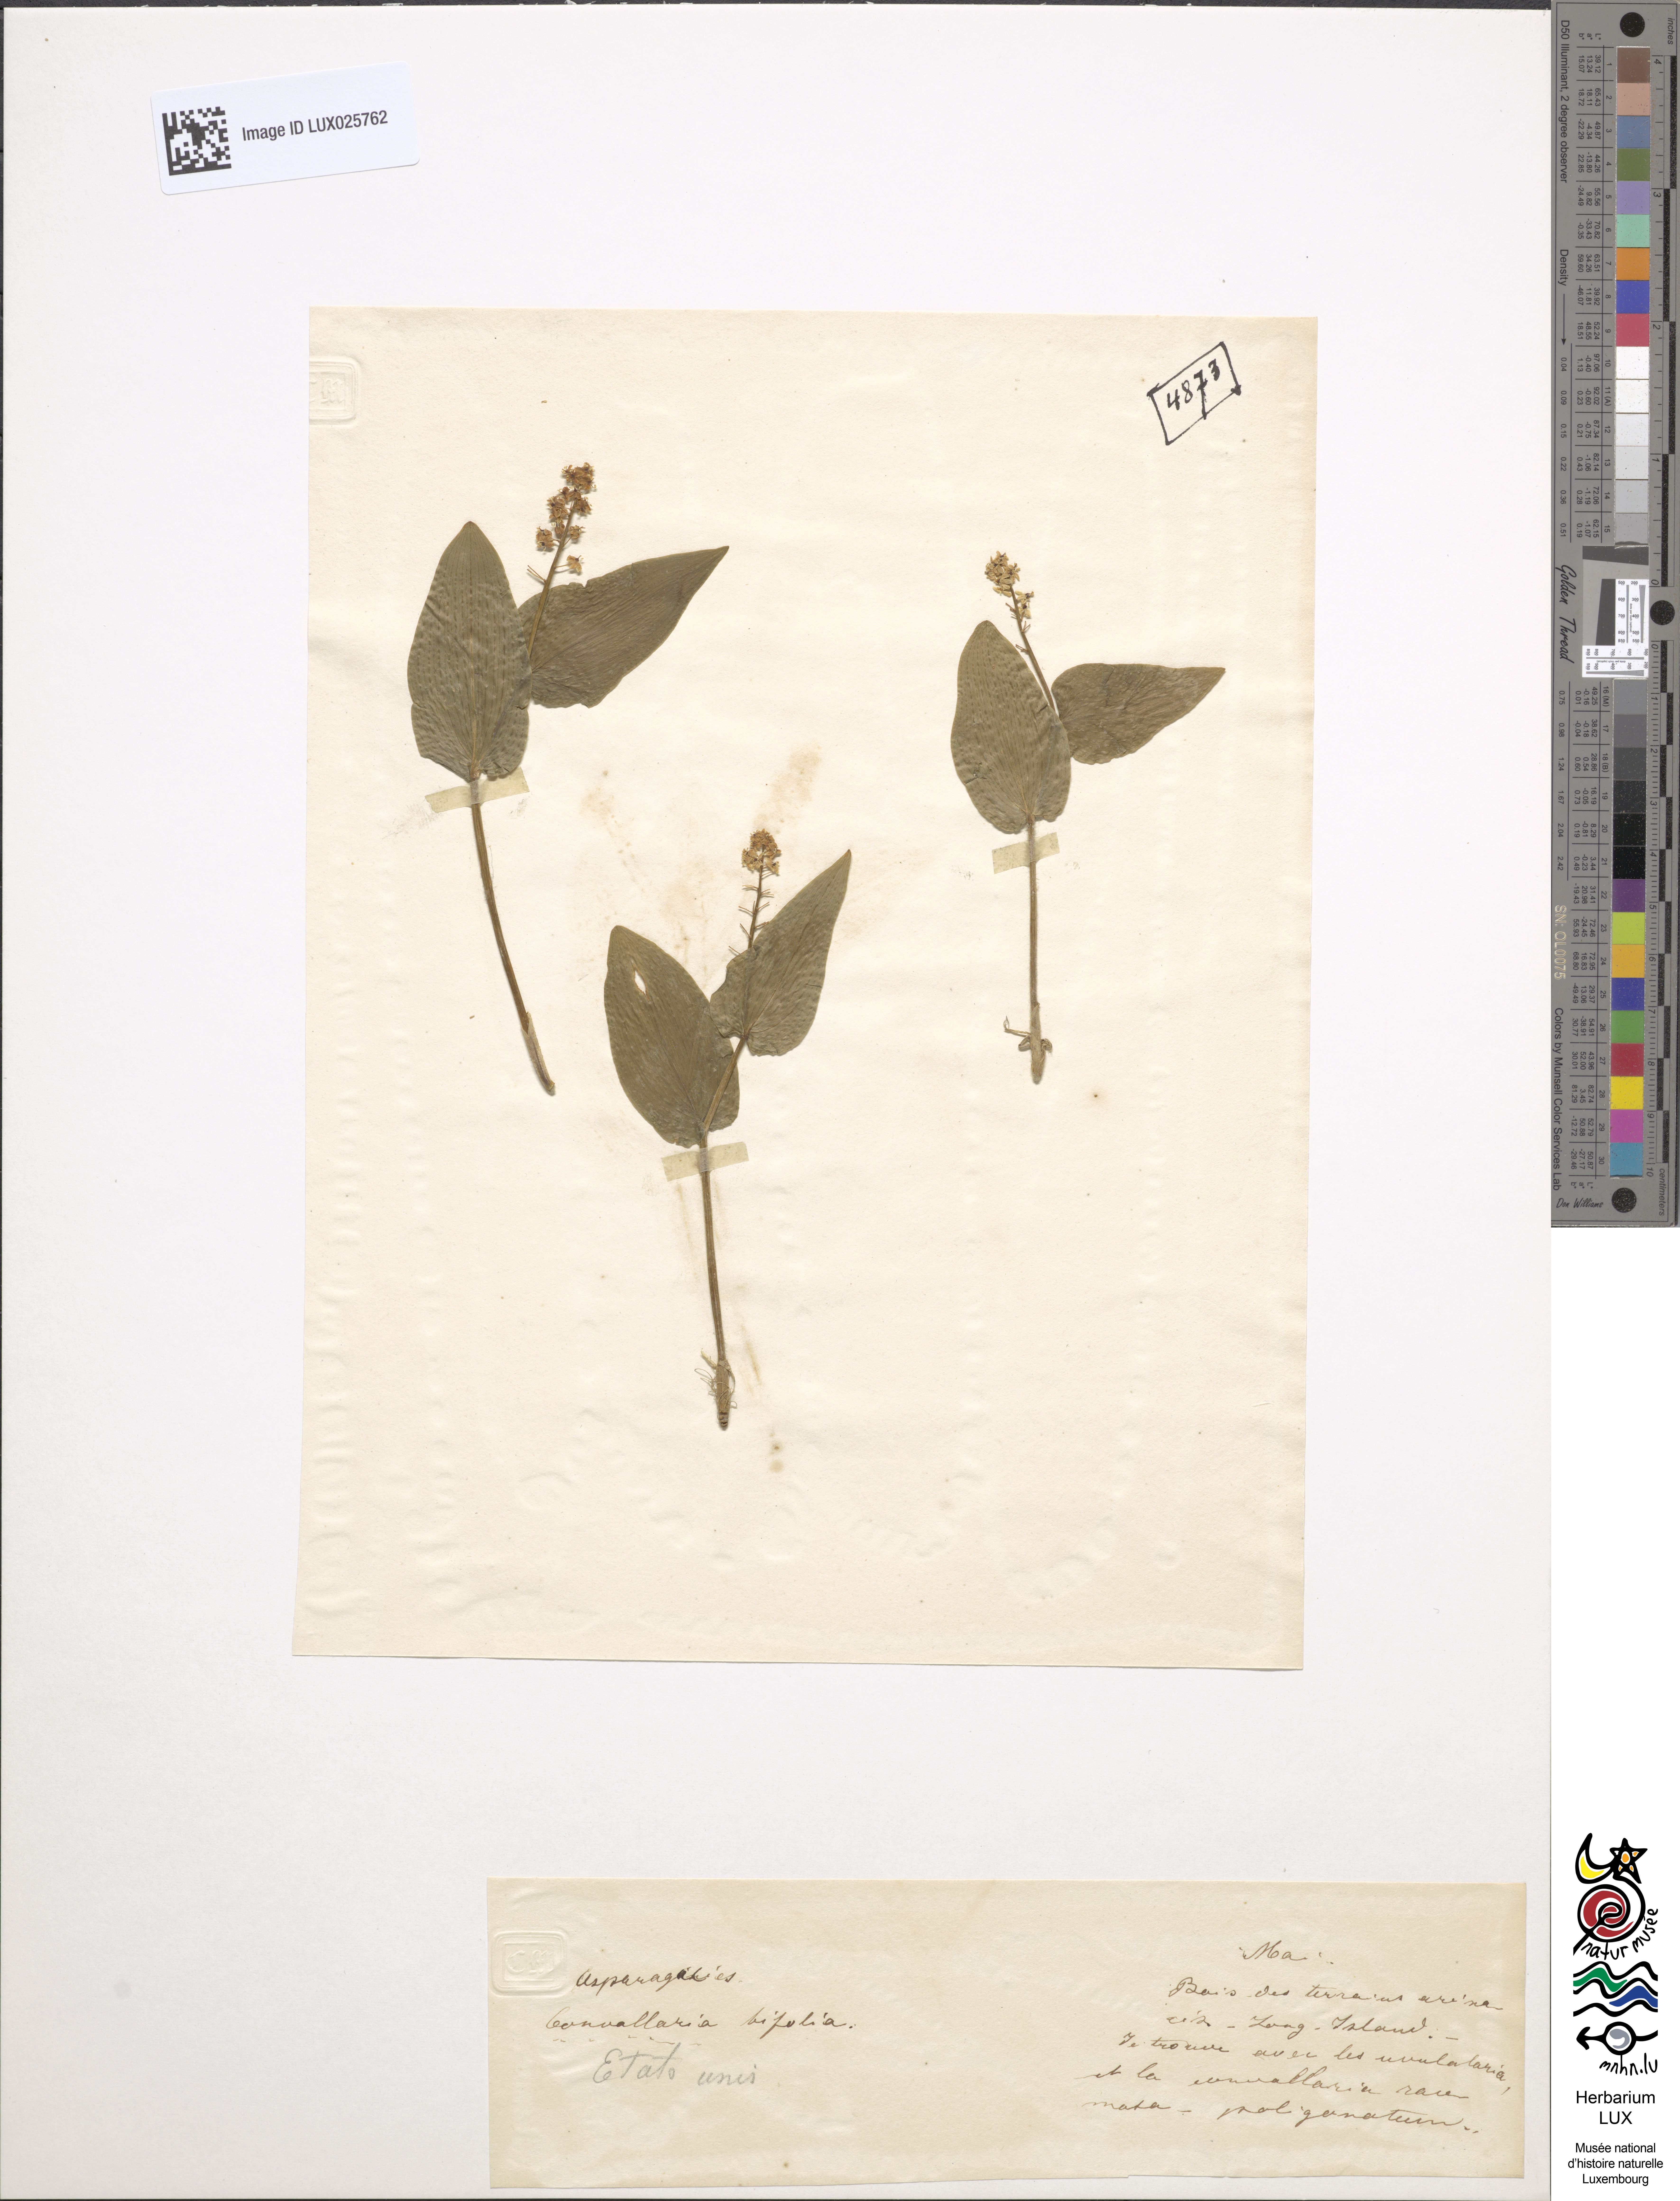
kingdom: Plantae
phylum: Tracheophyta
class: Liliopsida
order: Asparagales
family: Asparagaceae
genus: Maianthemum
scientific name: Maianthemum bifolium
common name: May lily
